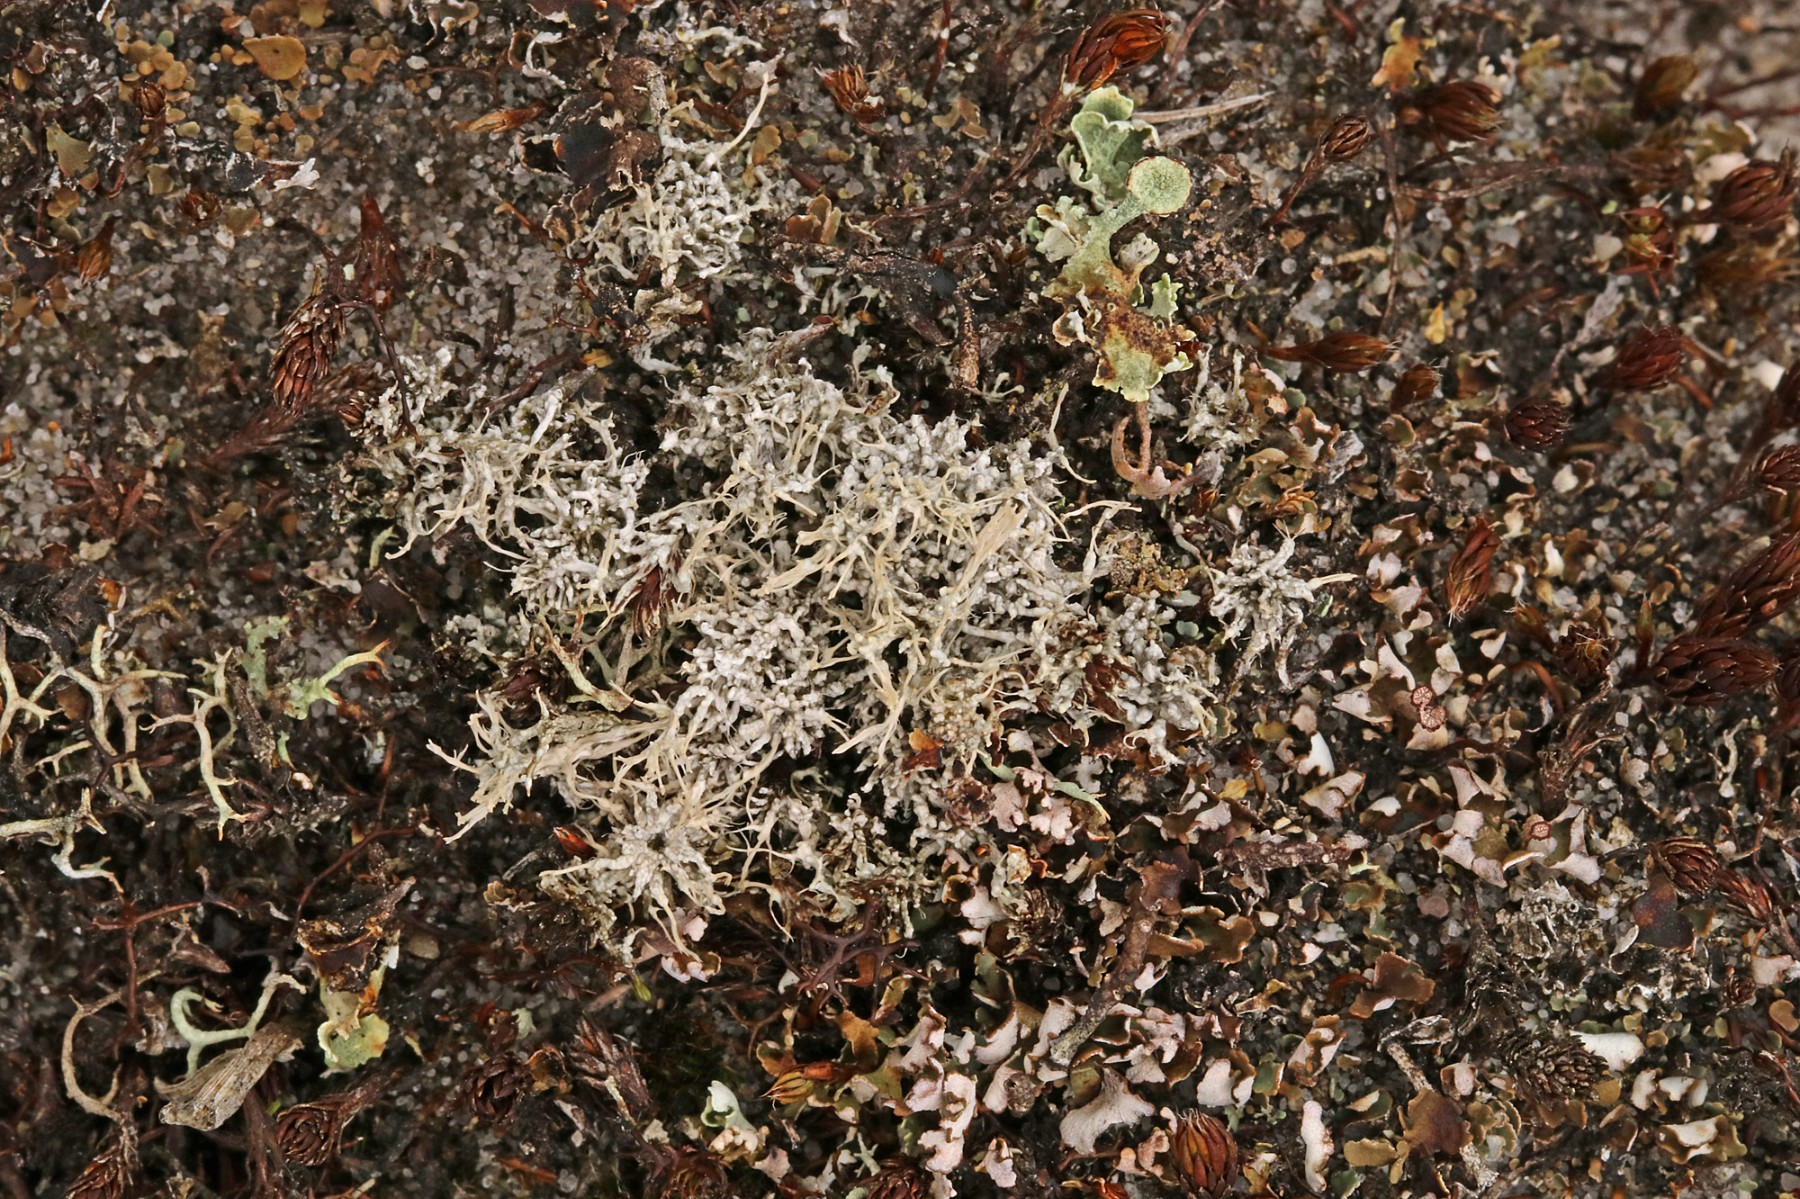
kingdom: Fungi
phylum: Ascomycota
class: Lecanoromycetes
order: Pertusariales
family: Ochrolechiaceae
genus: Ochrolechia
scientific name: Ochrolechia frigida
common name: fjeld-blegskivelav
